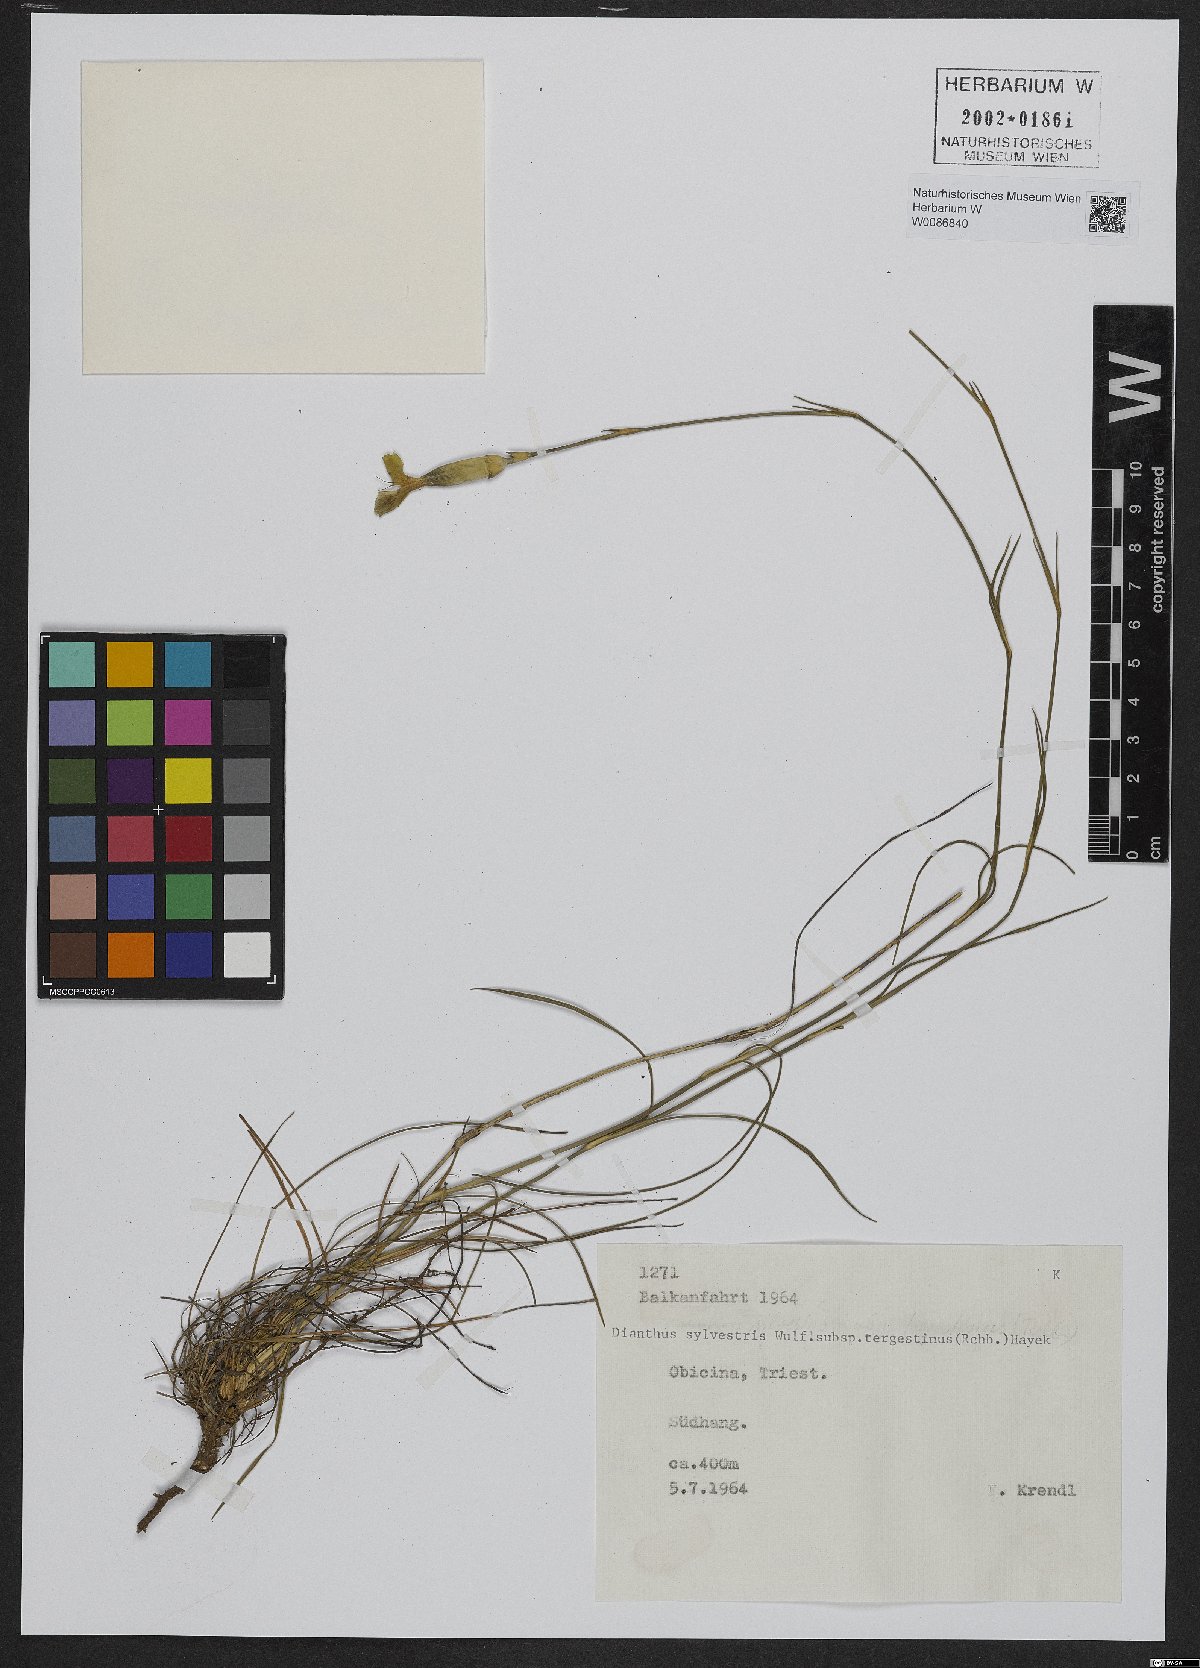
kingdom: Plantae
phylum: Tracheophyta
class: Magnoliopsida
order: Caryophyllales
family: Caryophyllaceae
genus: Dianthus
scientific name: Dianthus sylvestris
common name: Wood pink
